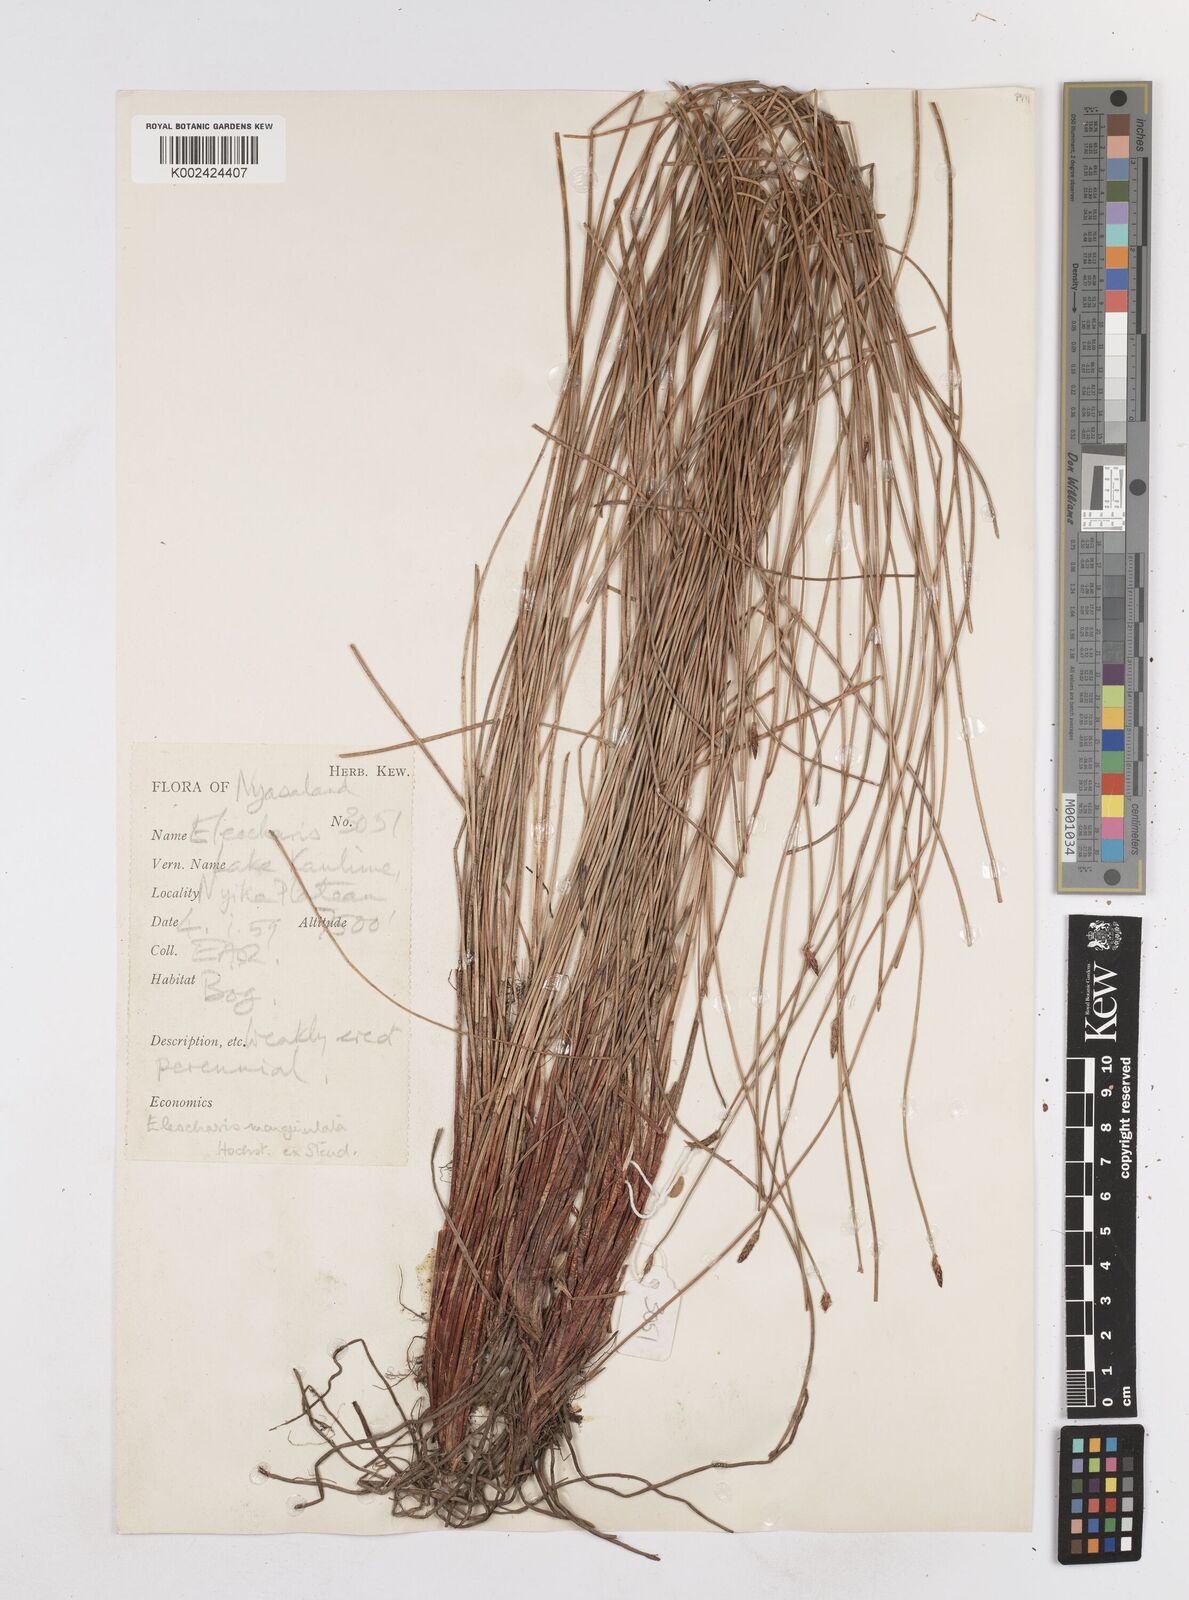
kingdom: Plantae
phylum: Tracheophyta
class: Liliopsida
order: Poales
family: Cyperaceae
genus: Eleocharis
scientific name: Eleocharis marginulata
